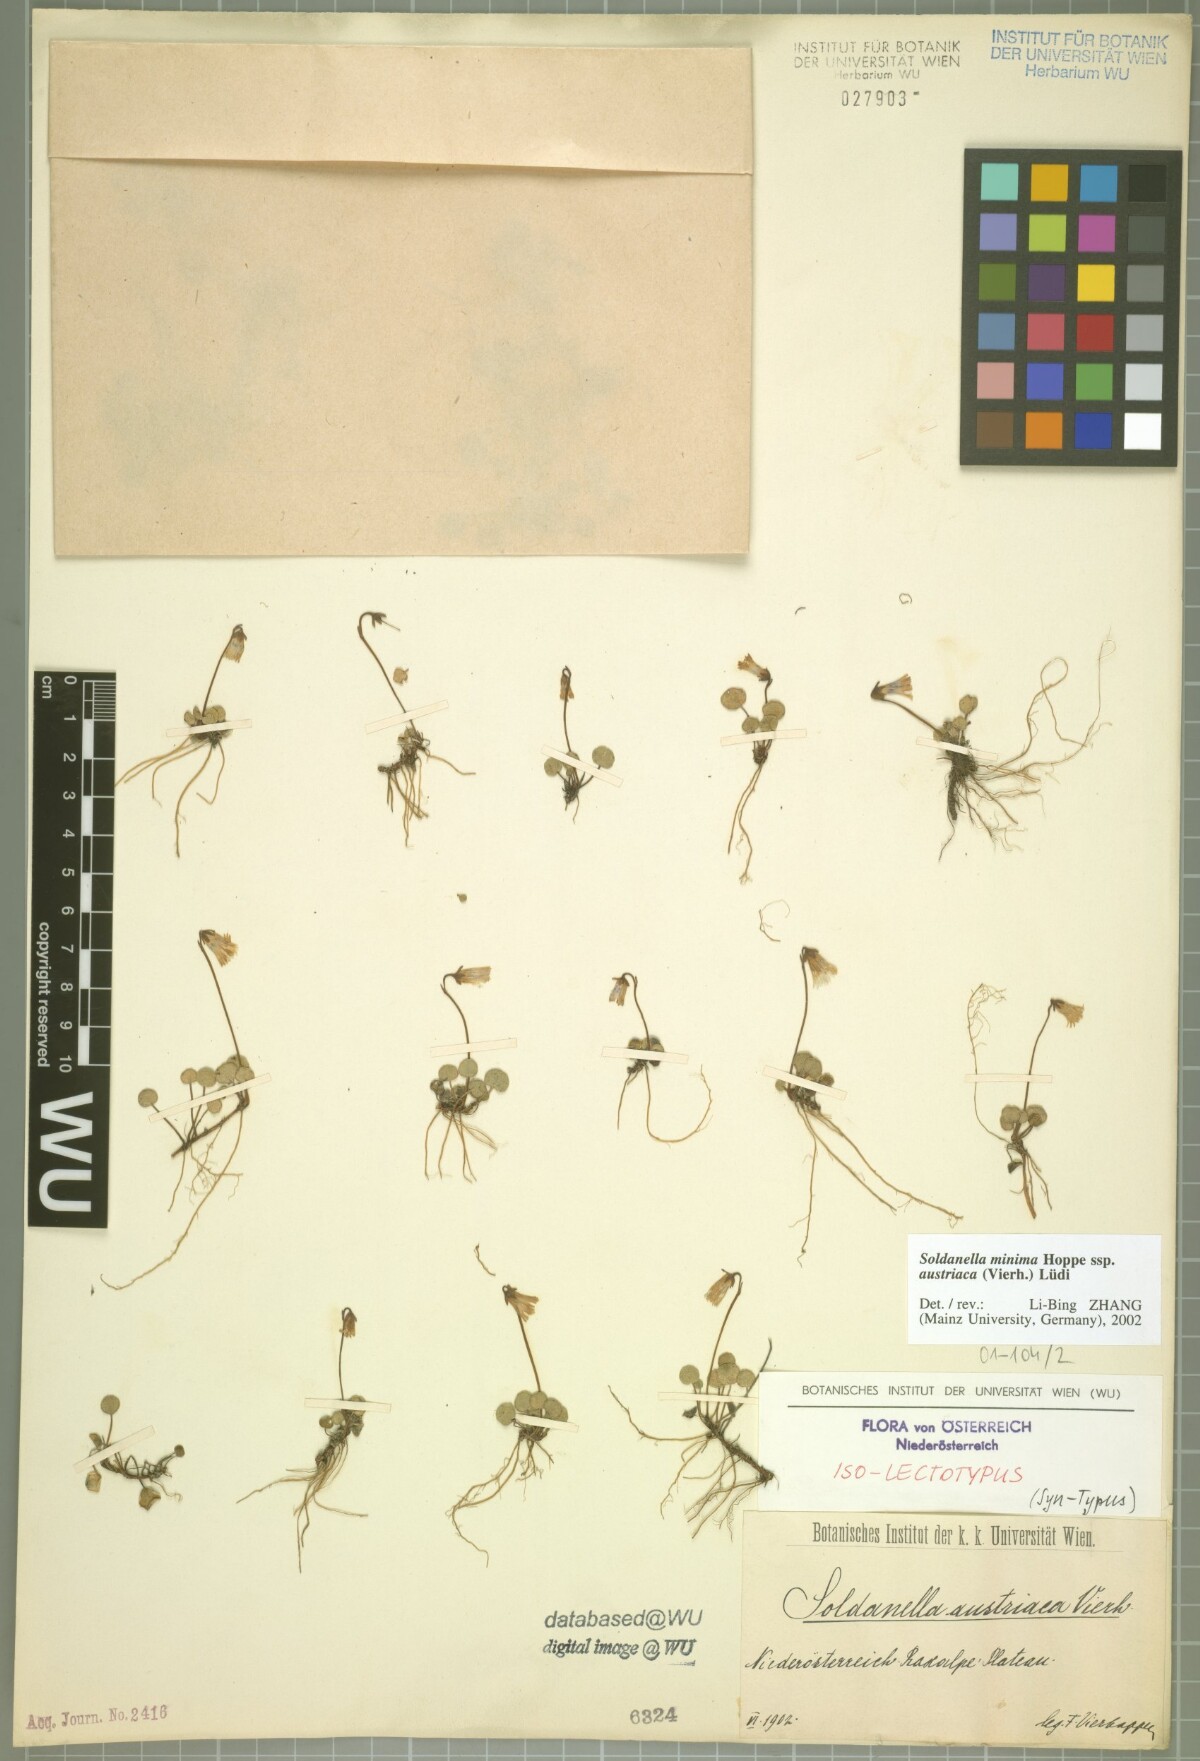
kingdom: Plantae
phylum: Tracheophyta
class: Magnoliopsida
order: Ericales
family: Primulaceae
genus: Soldanella
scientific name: Soldanella austriaca
